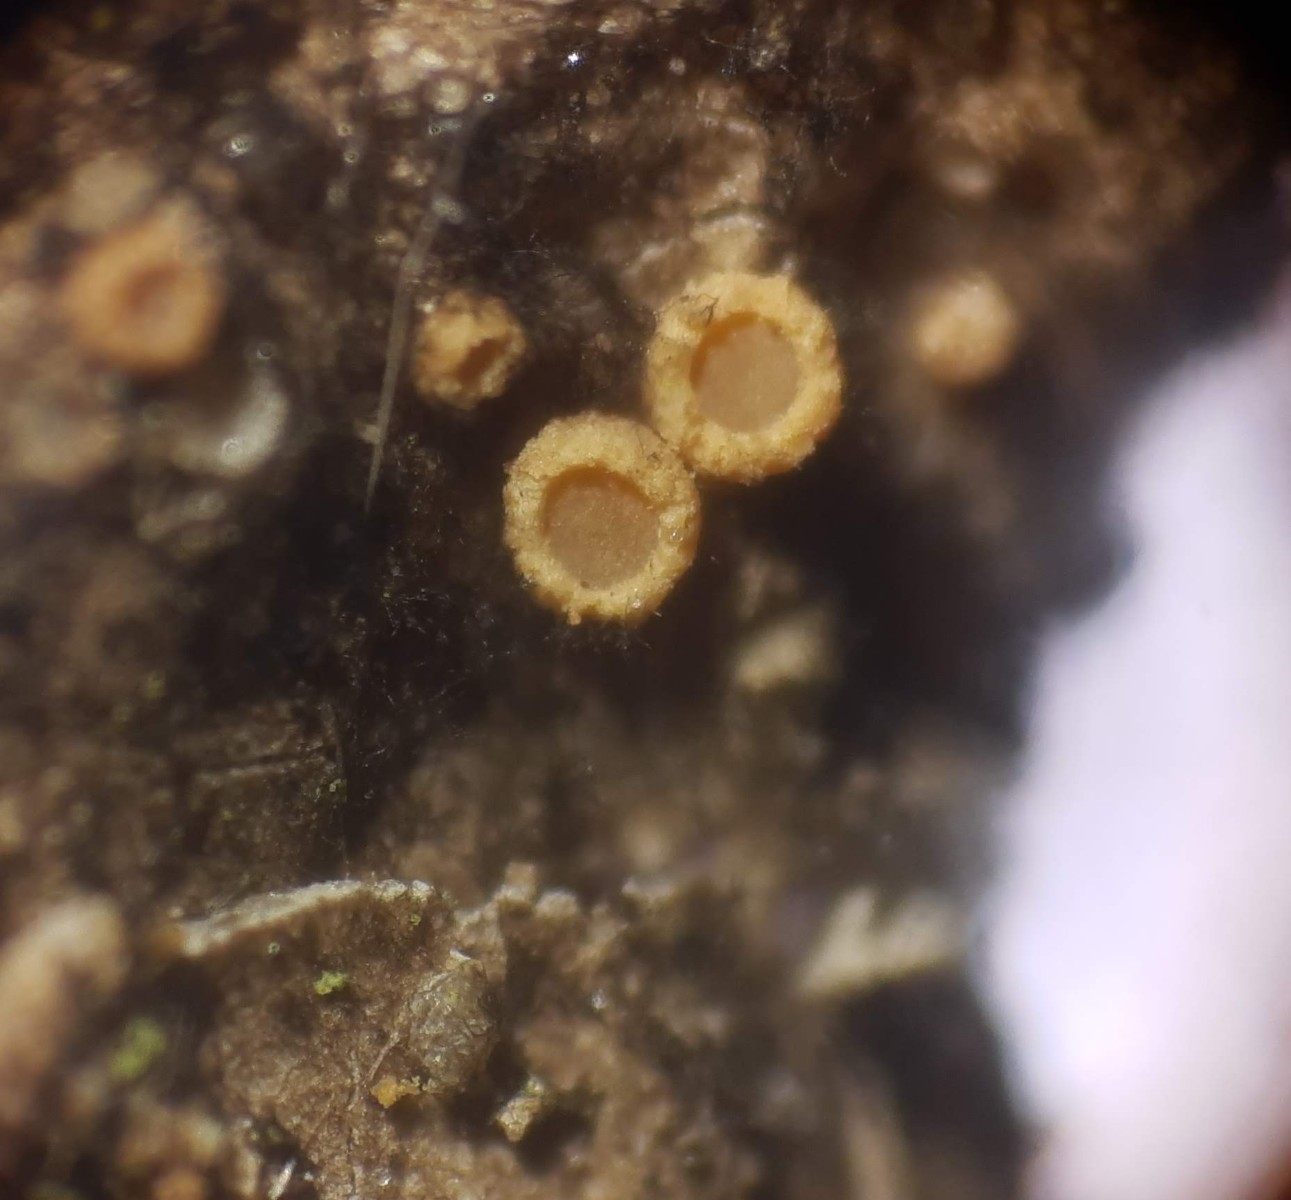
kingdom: Fungi
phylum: Ascomycota
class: Sareomycetes
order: Sareales
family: Sareaceae
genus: Sarea
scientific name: Sarea resinae
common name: orangegul harpiksskive
